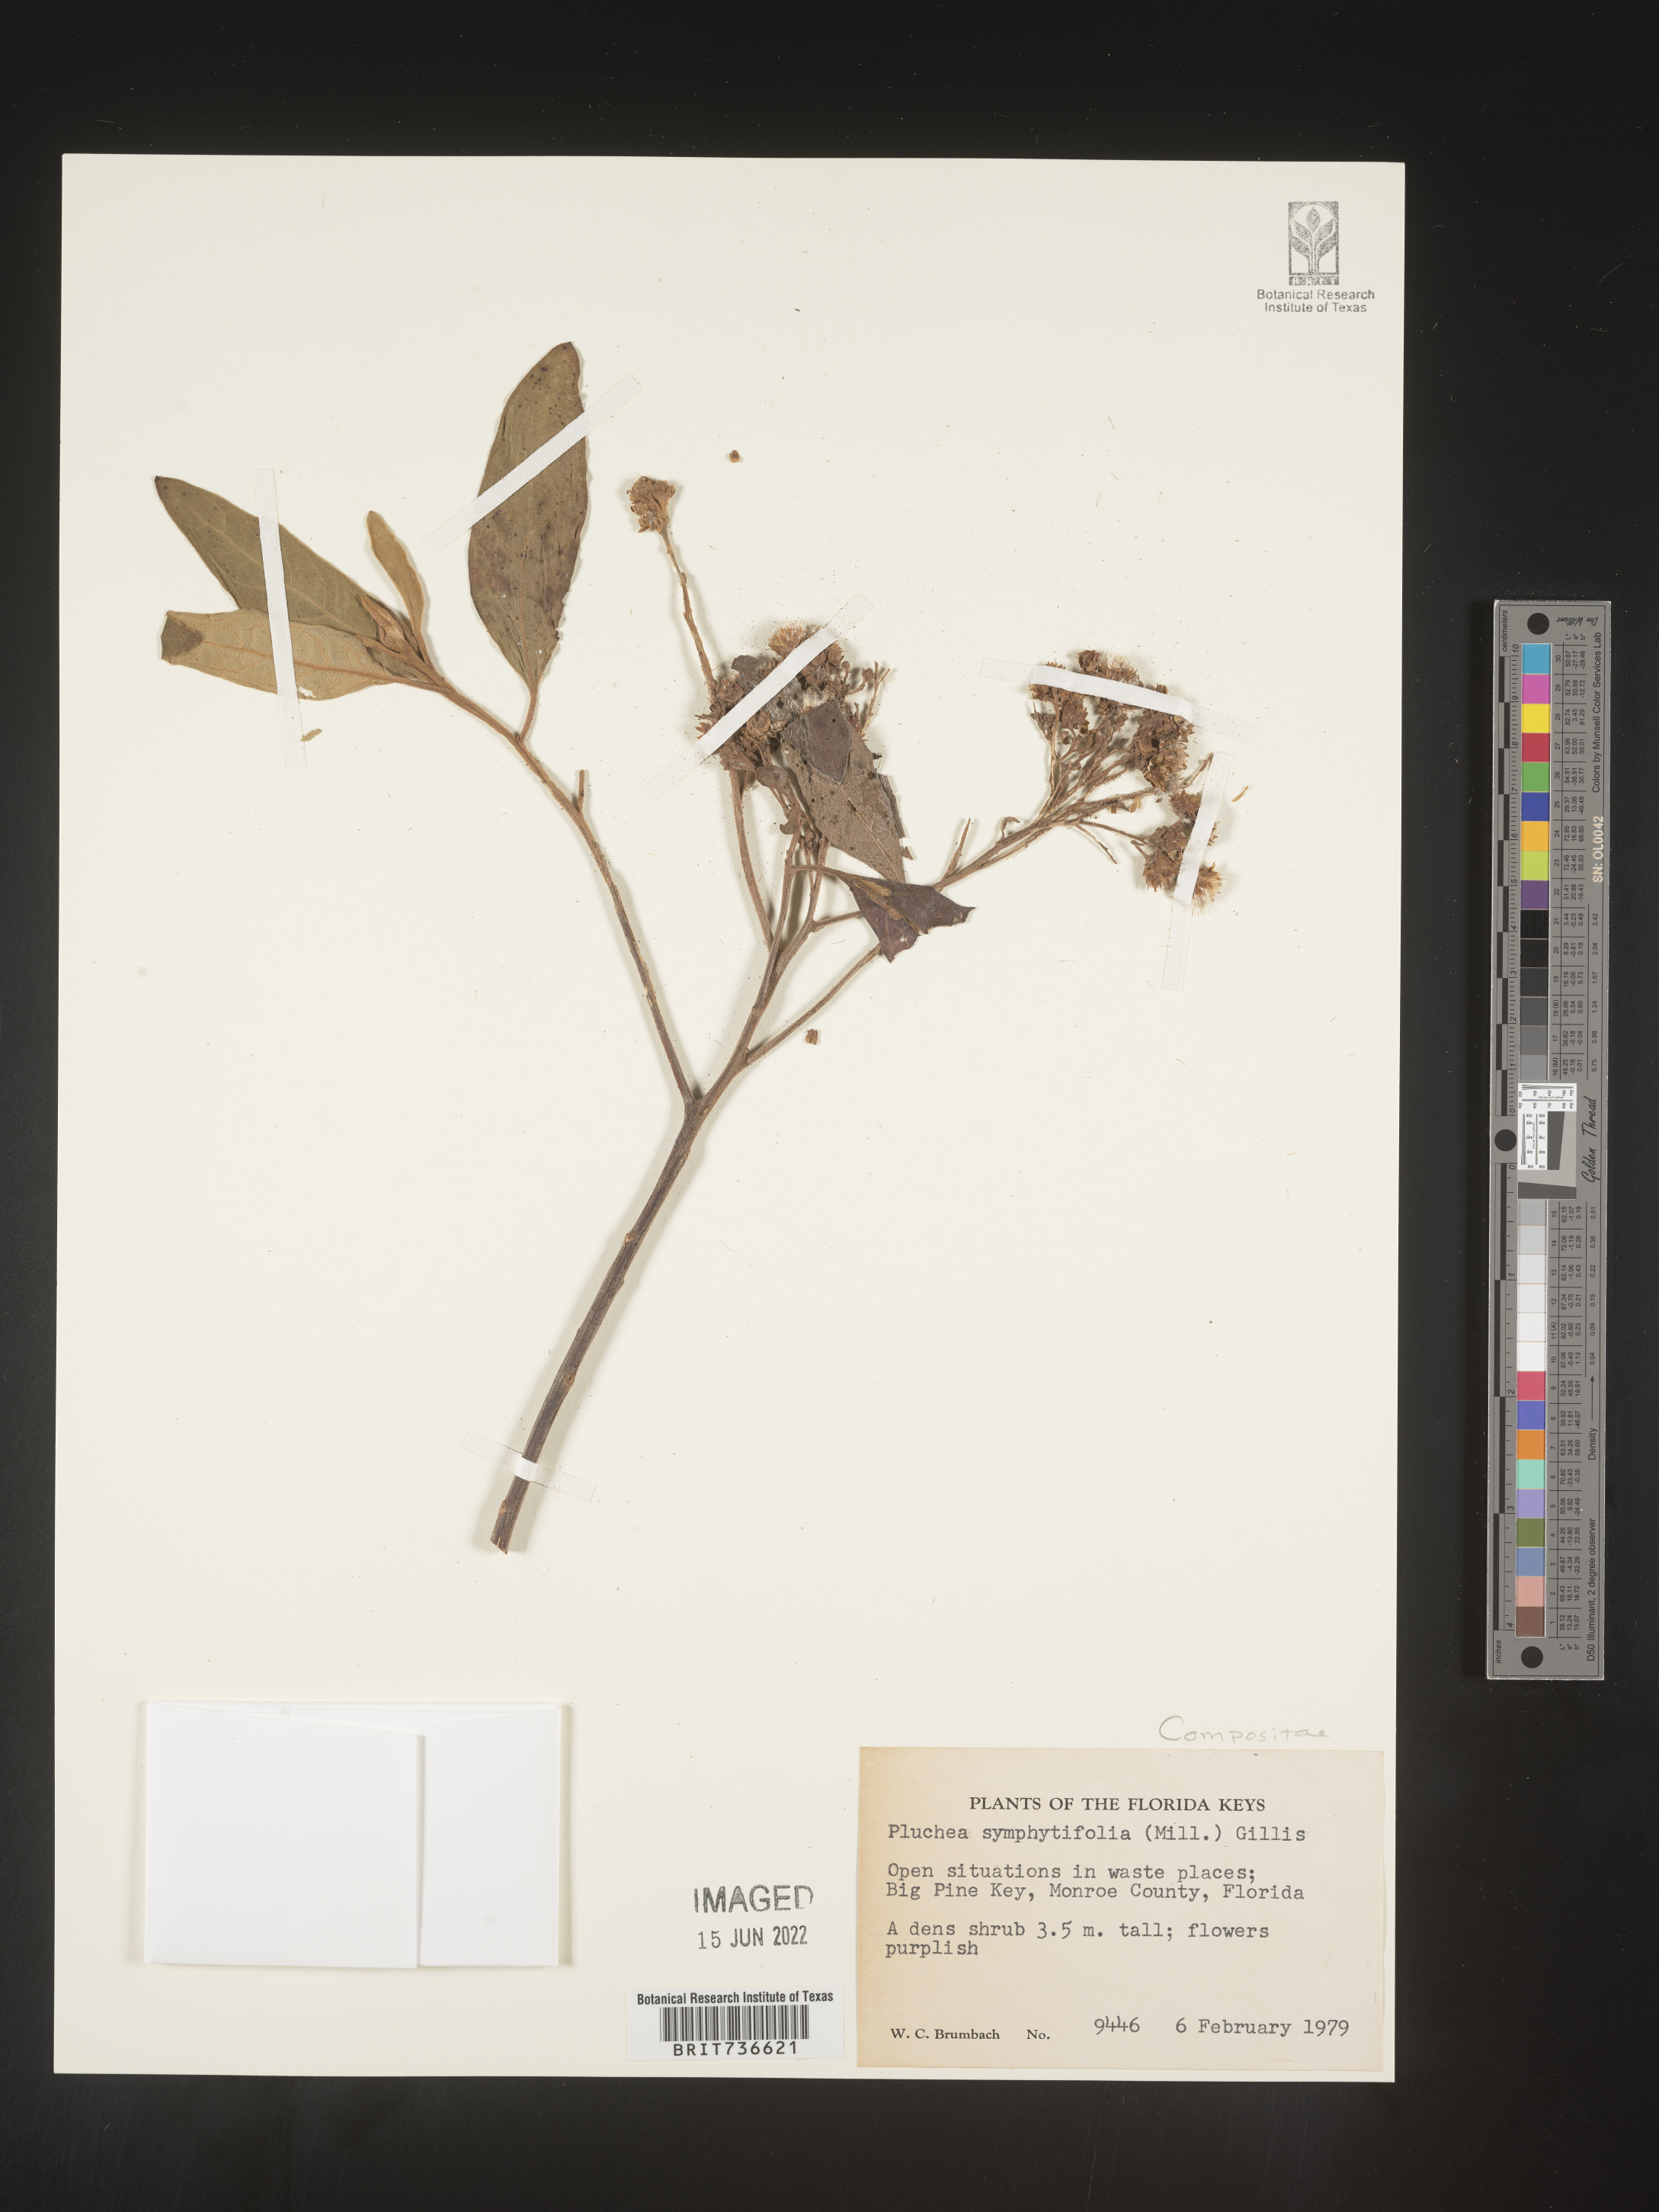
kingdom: Plantae
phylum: Tracheophyta
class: Magnoliopsida
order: Asterales
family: Asteraceae
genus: Pluchea
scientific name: Pluchea carolinensis
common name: Marsh fleabane
